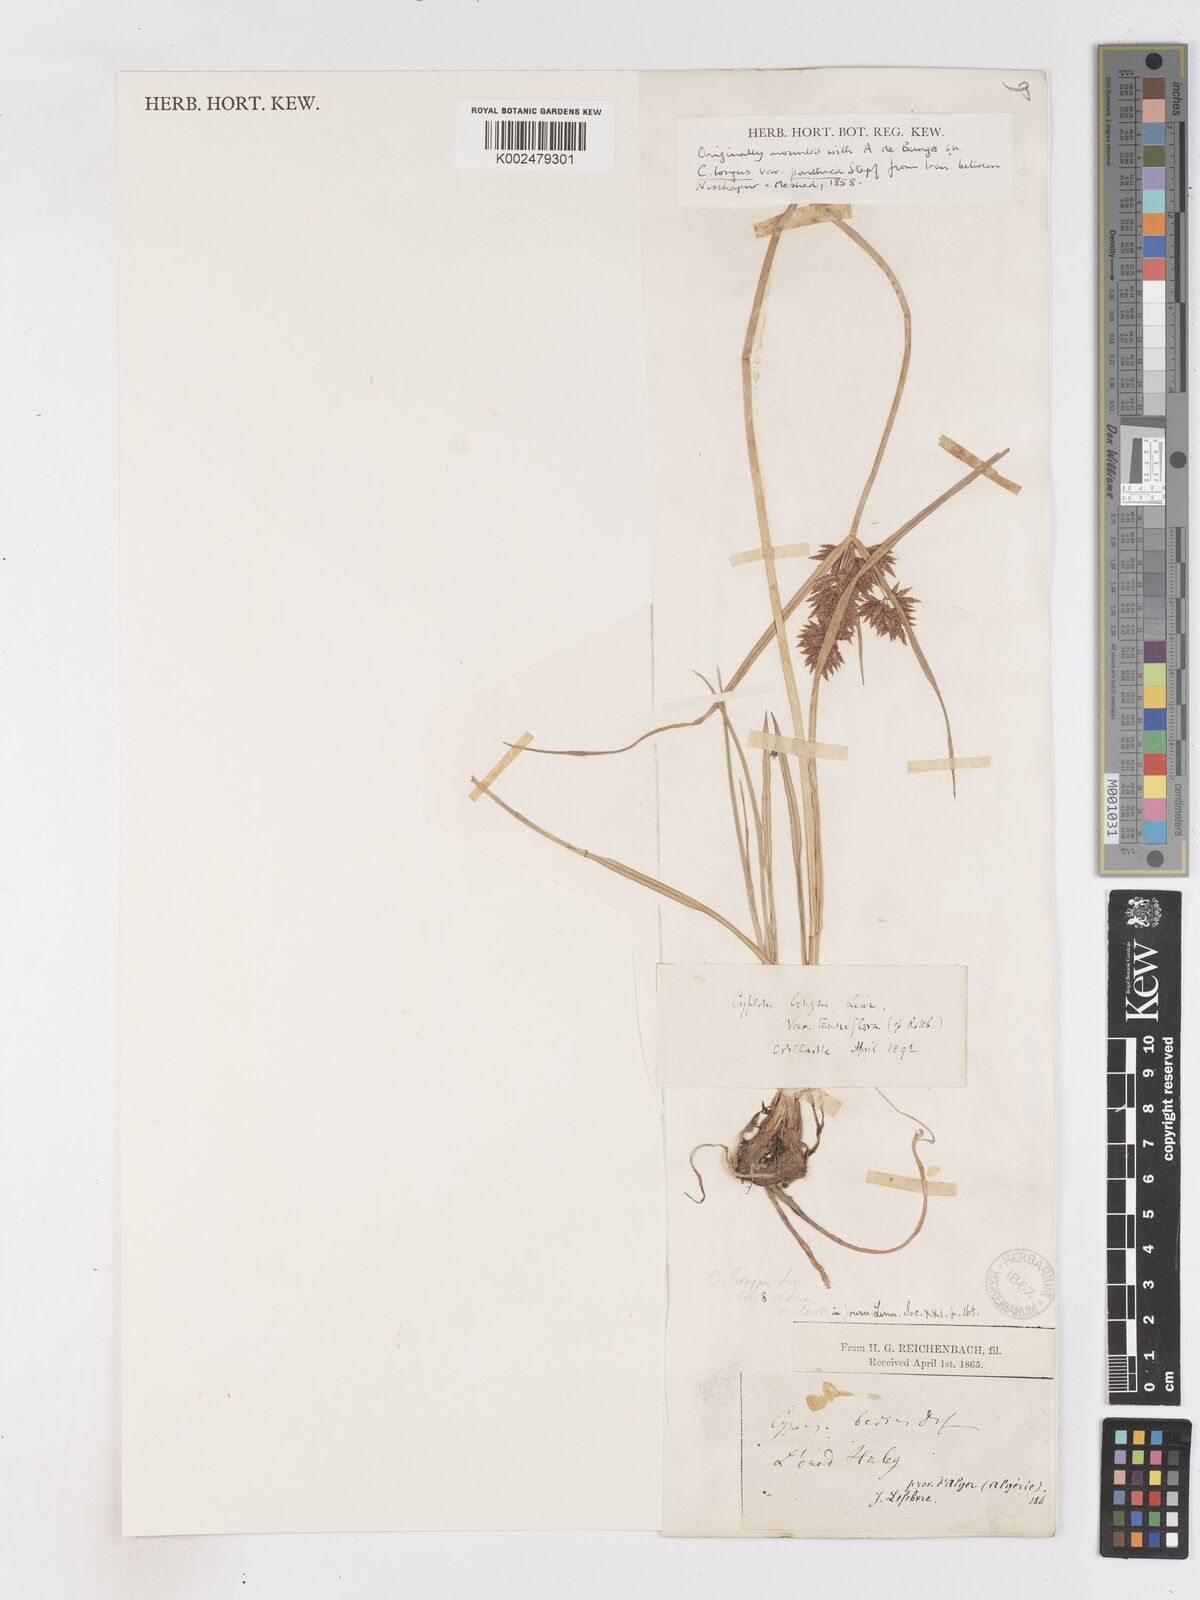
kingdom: Plantae
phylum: Tracheophyta
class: Liliopsida
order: Poales
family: Cyperaceae
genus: Cyperus
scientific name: Cyperus longus
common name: Galingale
